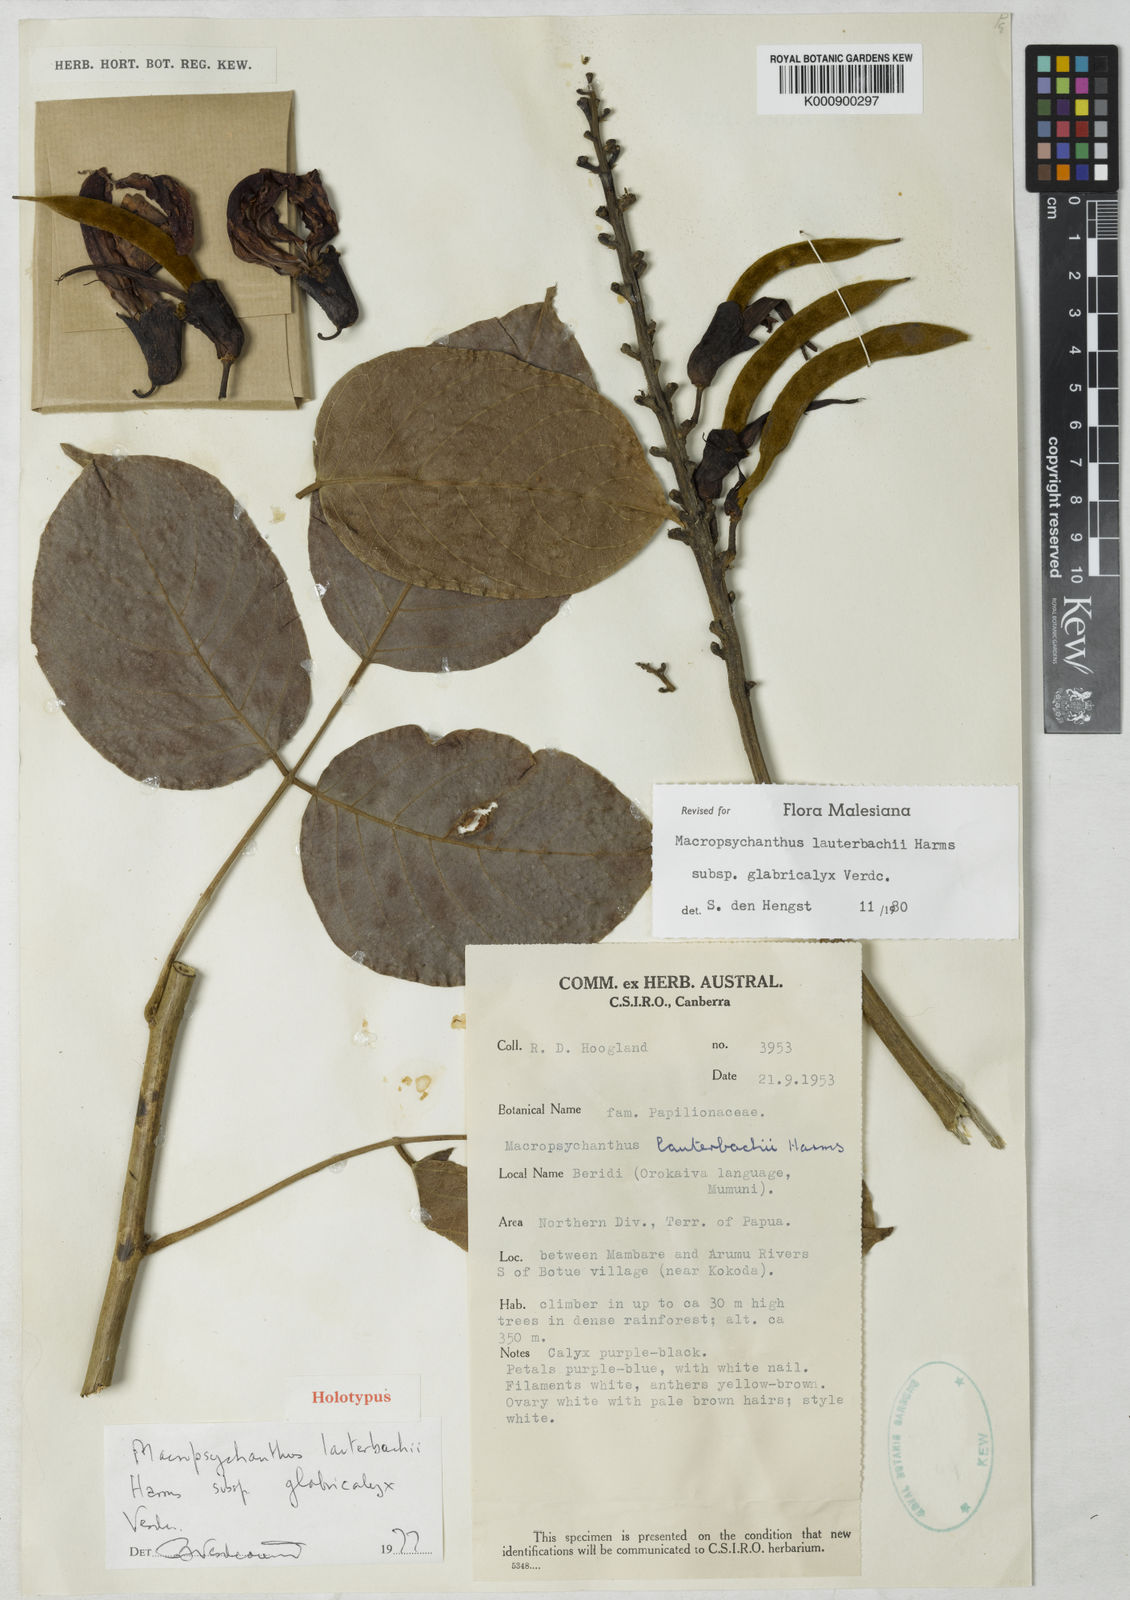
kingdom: Plantae
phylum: Tracheophyta
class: Magnoliopsida
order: Fabales
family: Fabaceae
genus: Macropsychanthus
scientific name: Macropsychanthus
